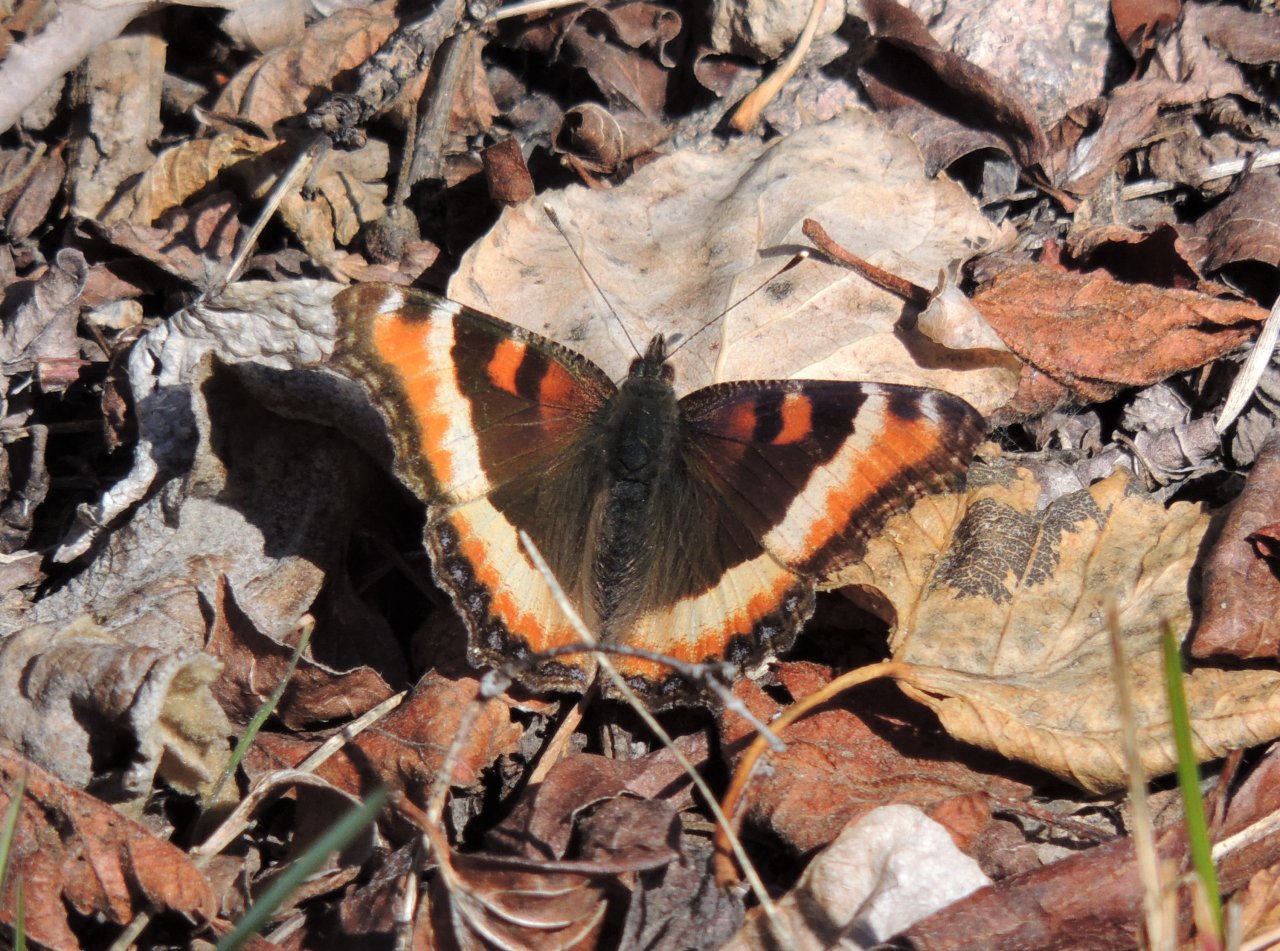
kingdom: Animalia
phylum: Arthropoda
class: Insecta
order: Lepidoptera
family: Nymphalidae
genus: Aglais
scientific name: Aglais milberti
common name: Milbert's Tortoiseshell
